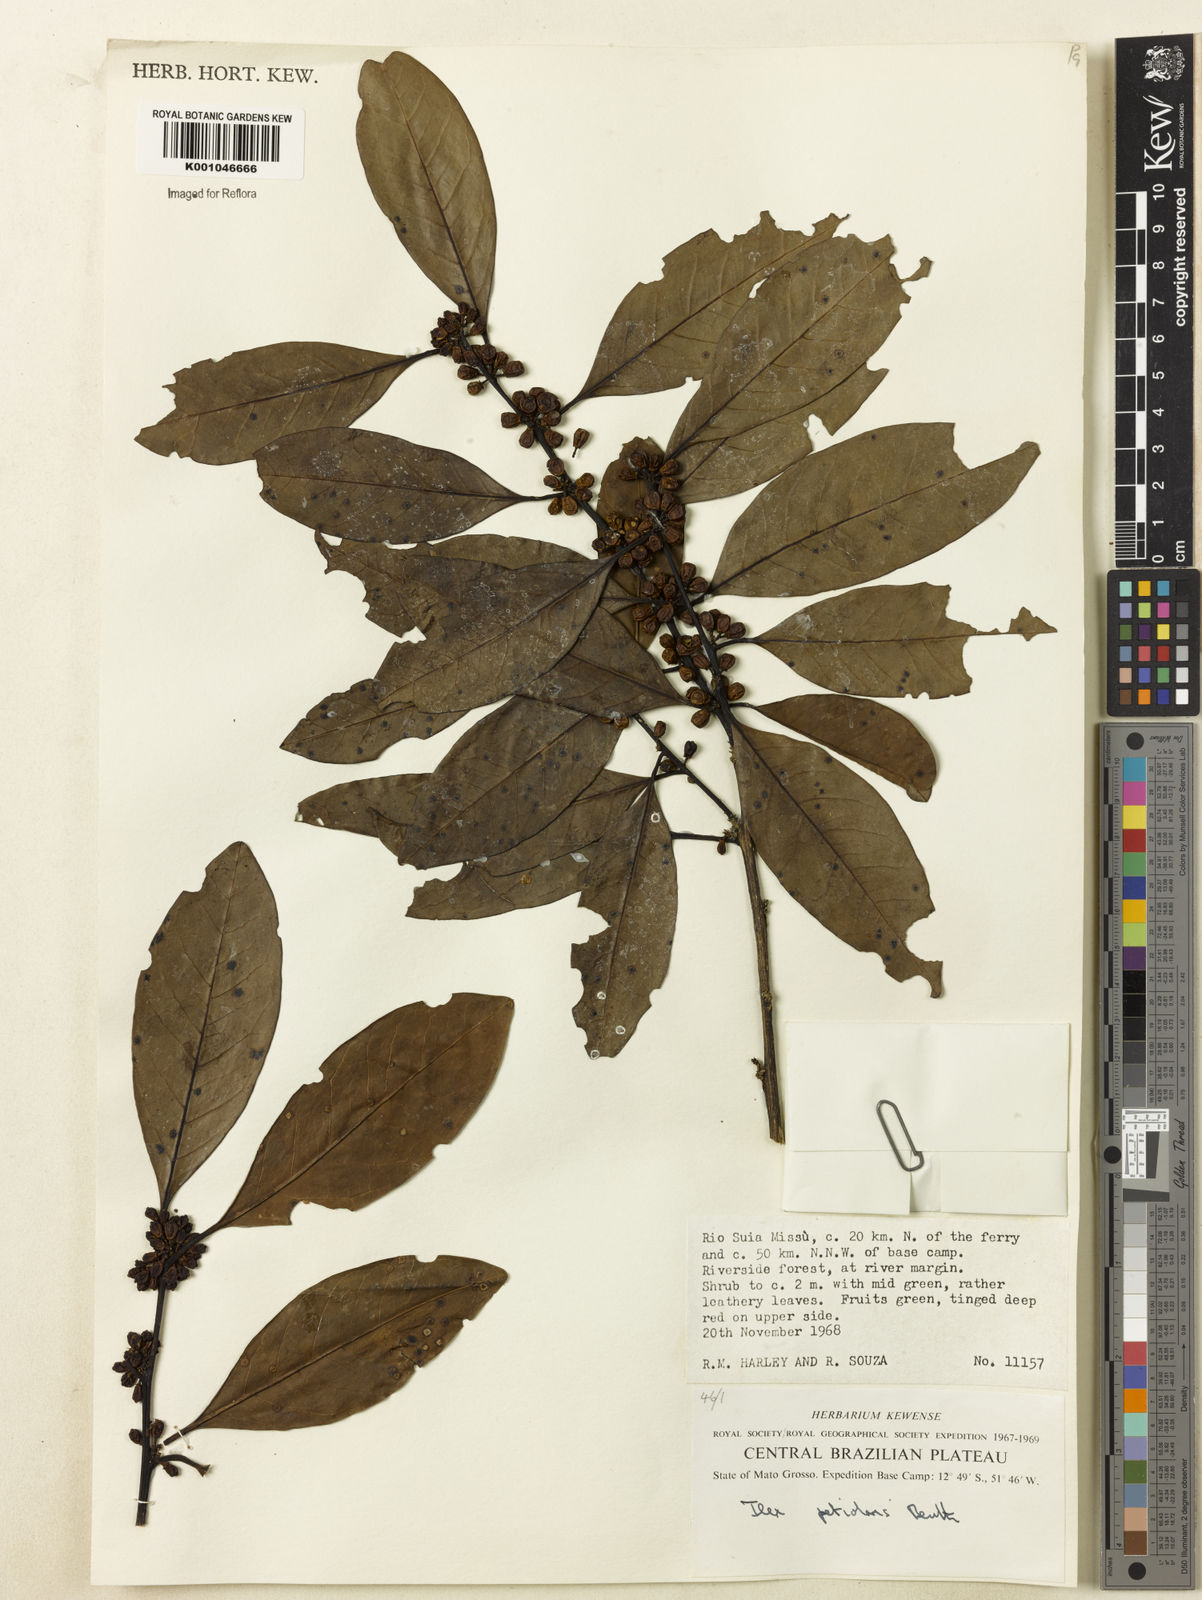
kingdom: Plantae
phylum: Tracheophyta
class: Magnoliopsida
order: Aquifoliales
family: Aquifoliaceae
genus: Ilex
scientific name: Ilex lundii
